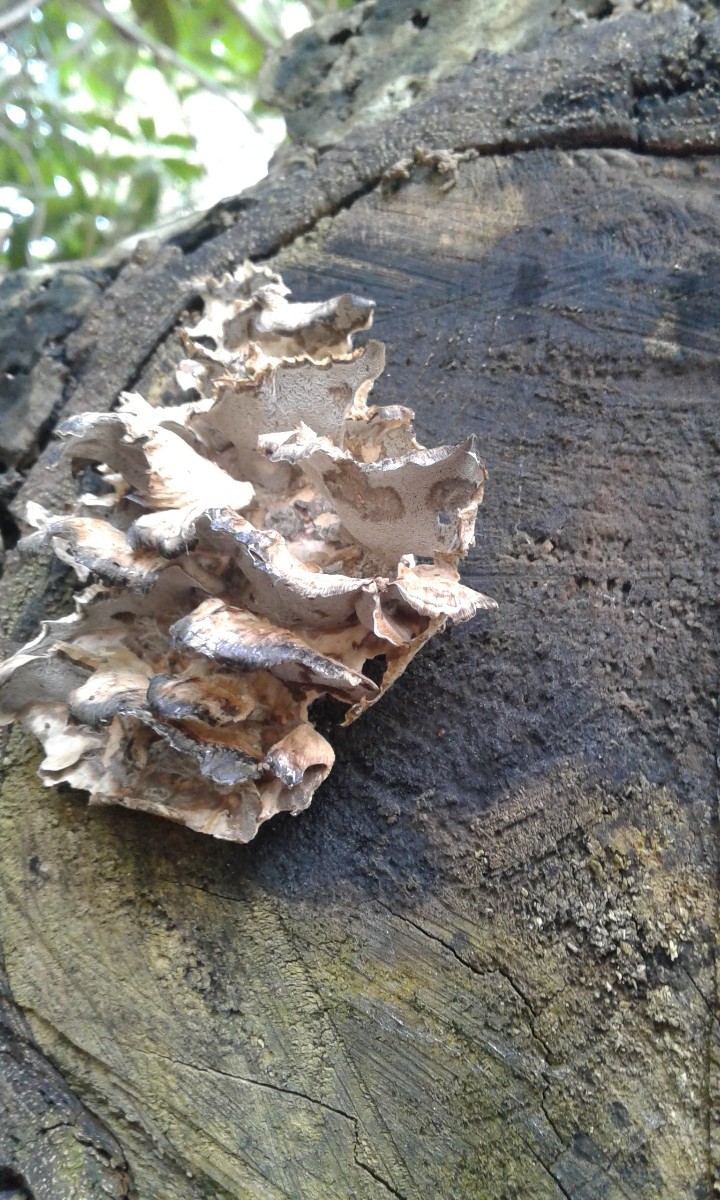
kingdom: Fungi
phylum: Basidiomycota
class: Agaricomycetes
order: Polyporales
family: Phanerochaetaceae
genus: Bjerkandera
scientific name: Bjerkandera
